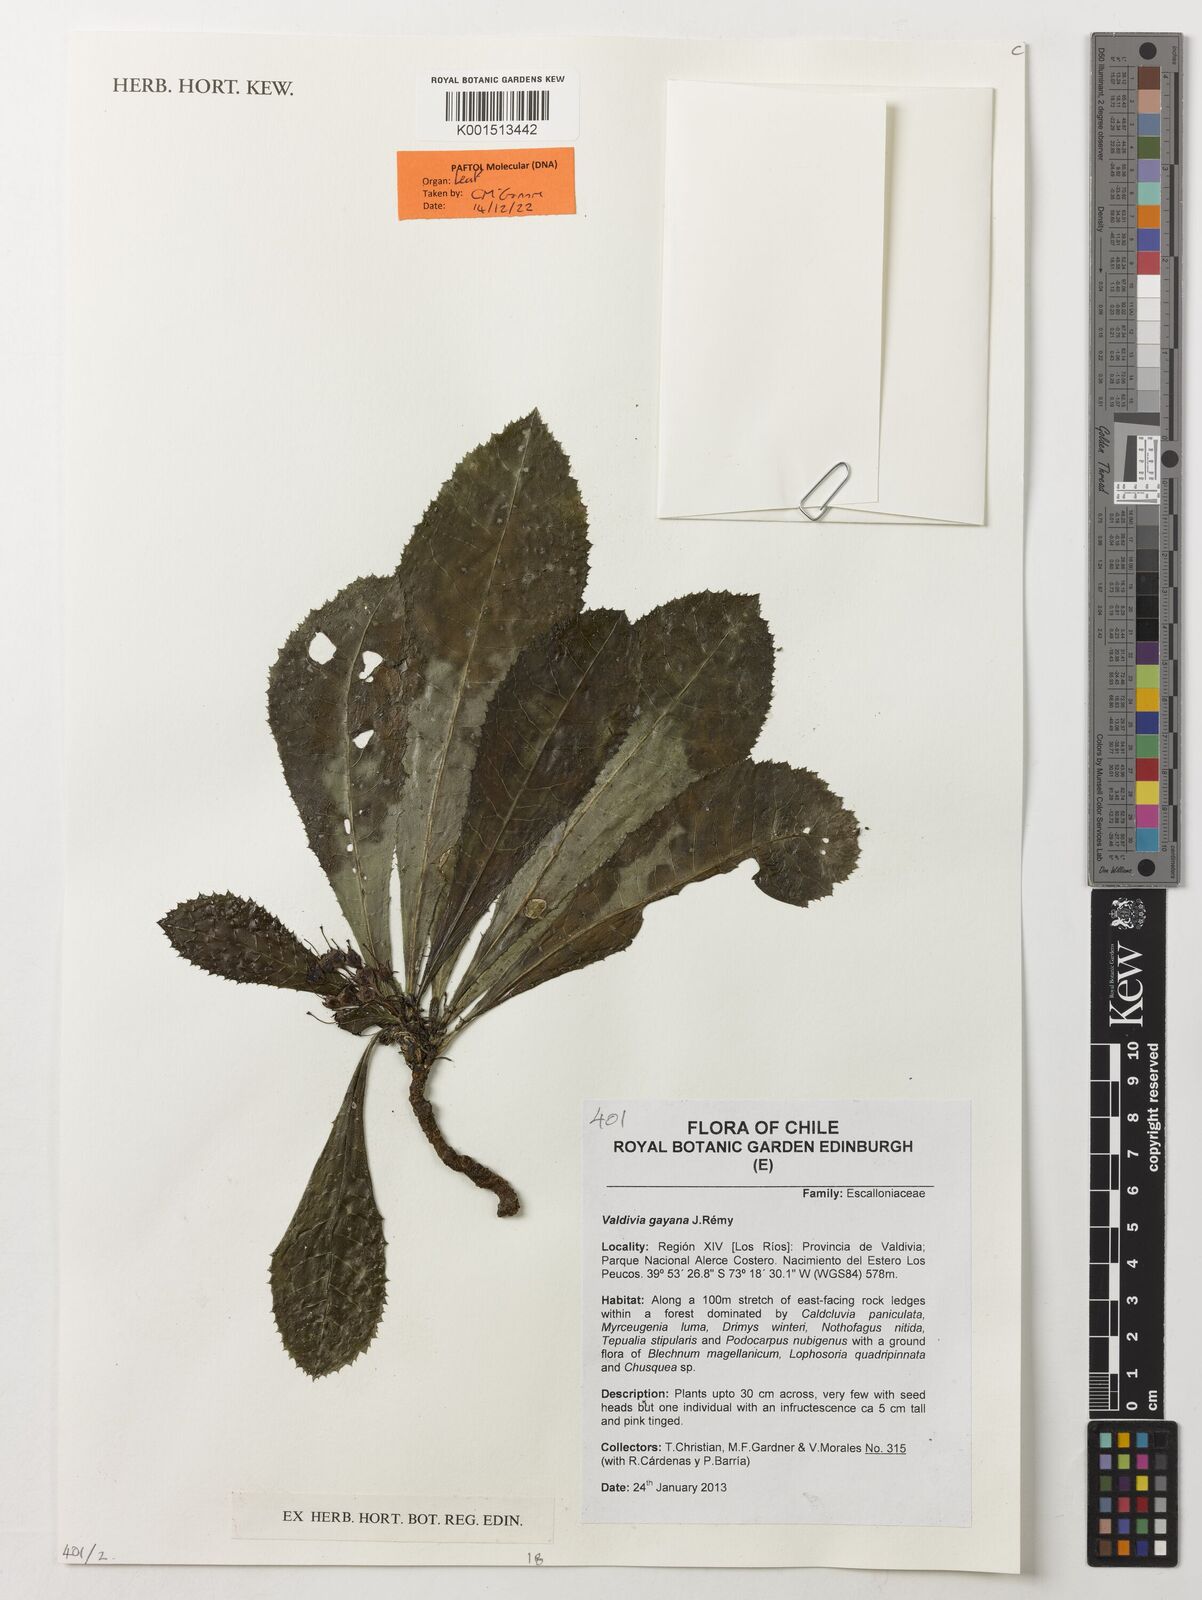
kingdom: Plantae
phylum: Tracheophyta
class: Magnoliopsida
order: Escalloniales
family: Escalloniaceae
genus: Valdivia
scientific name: Valdivia gayana
